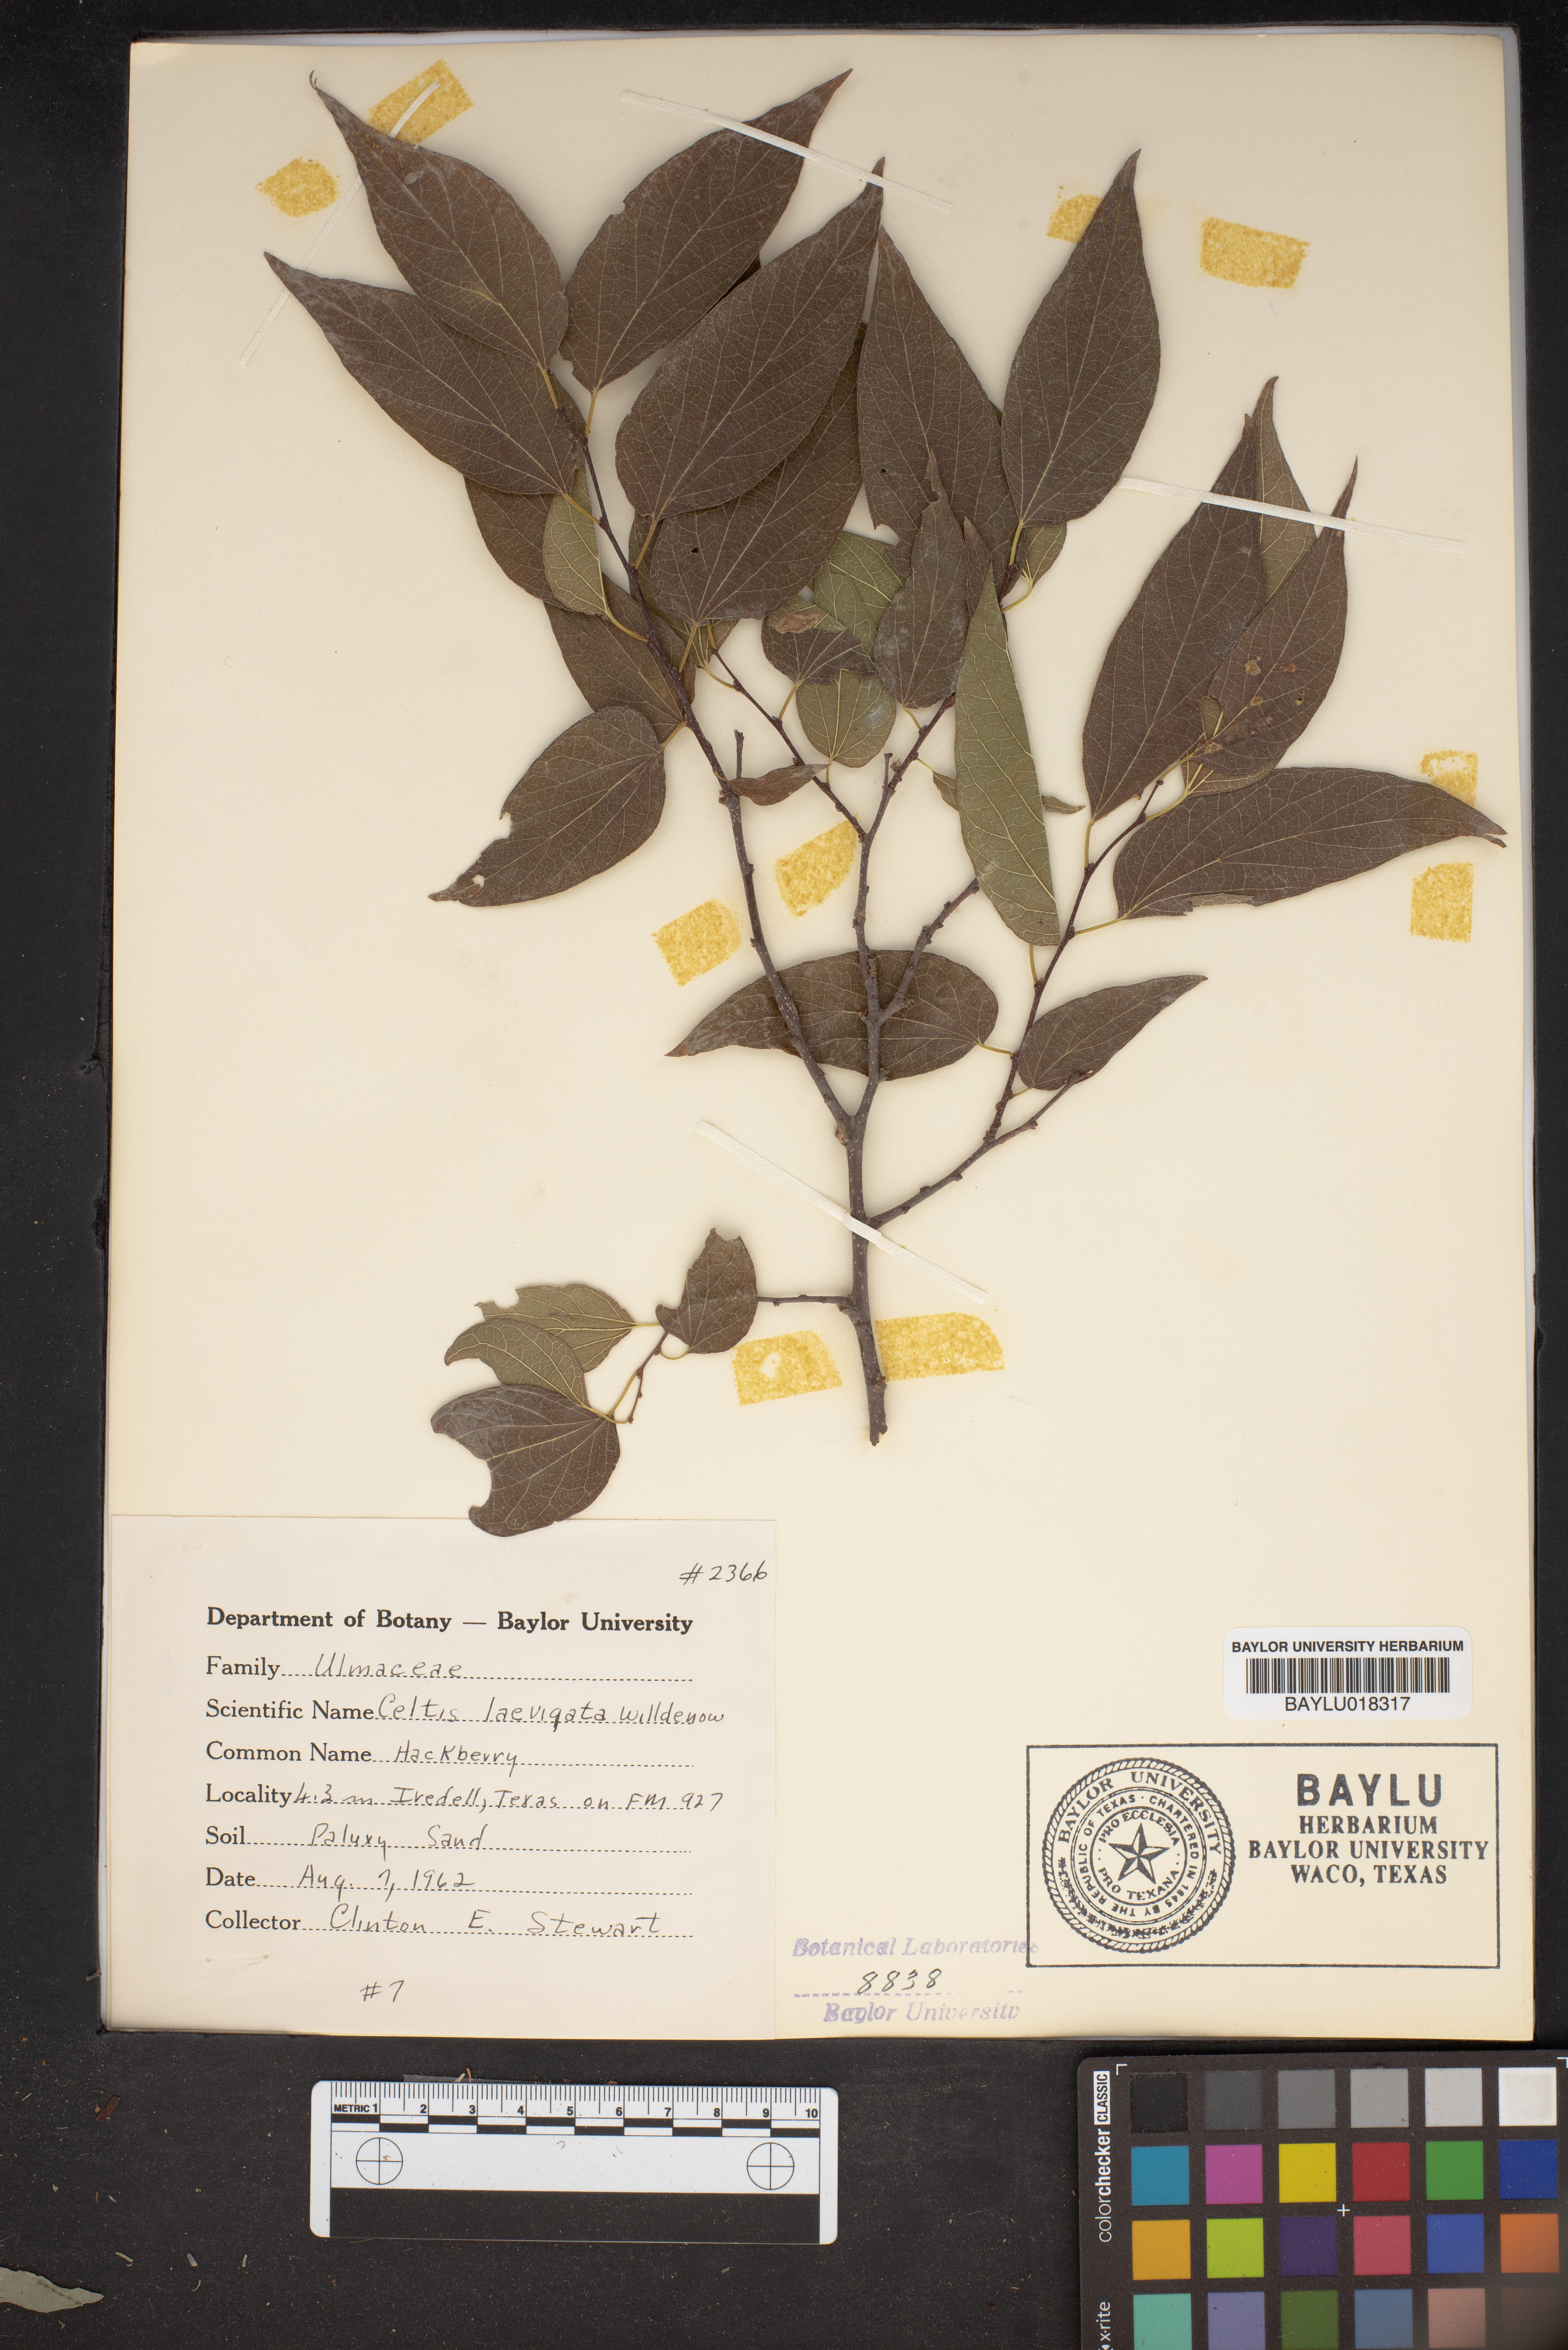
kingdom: Plantae
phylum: Tracheophyta
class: Magnoliopsida
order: Rosales
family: Cannabaceae
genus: Celtis
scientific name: Celtis laevigata
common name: Sugarberry
